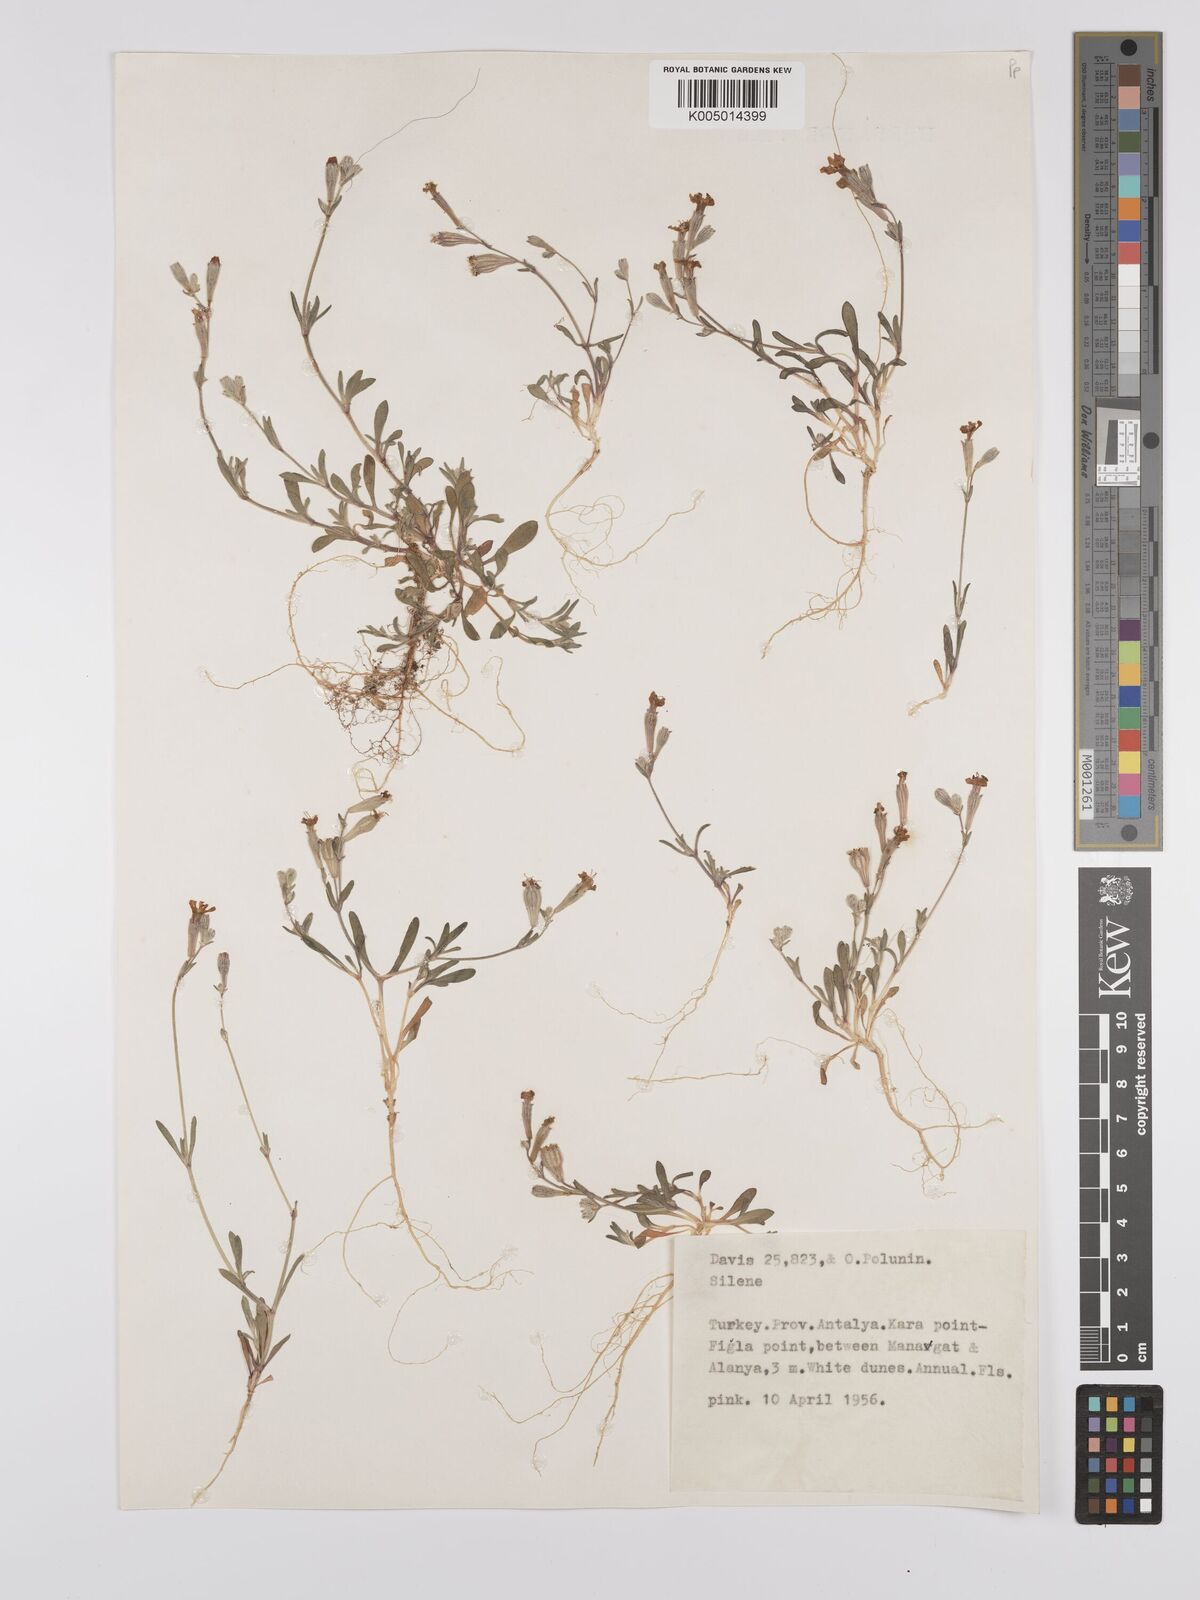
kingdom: Plantae
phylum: Tracheophyta
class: Magnoliopsida
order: Caryophyllales
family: Caryophyllaceae
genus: Silene
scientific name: Silene
